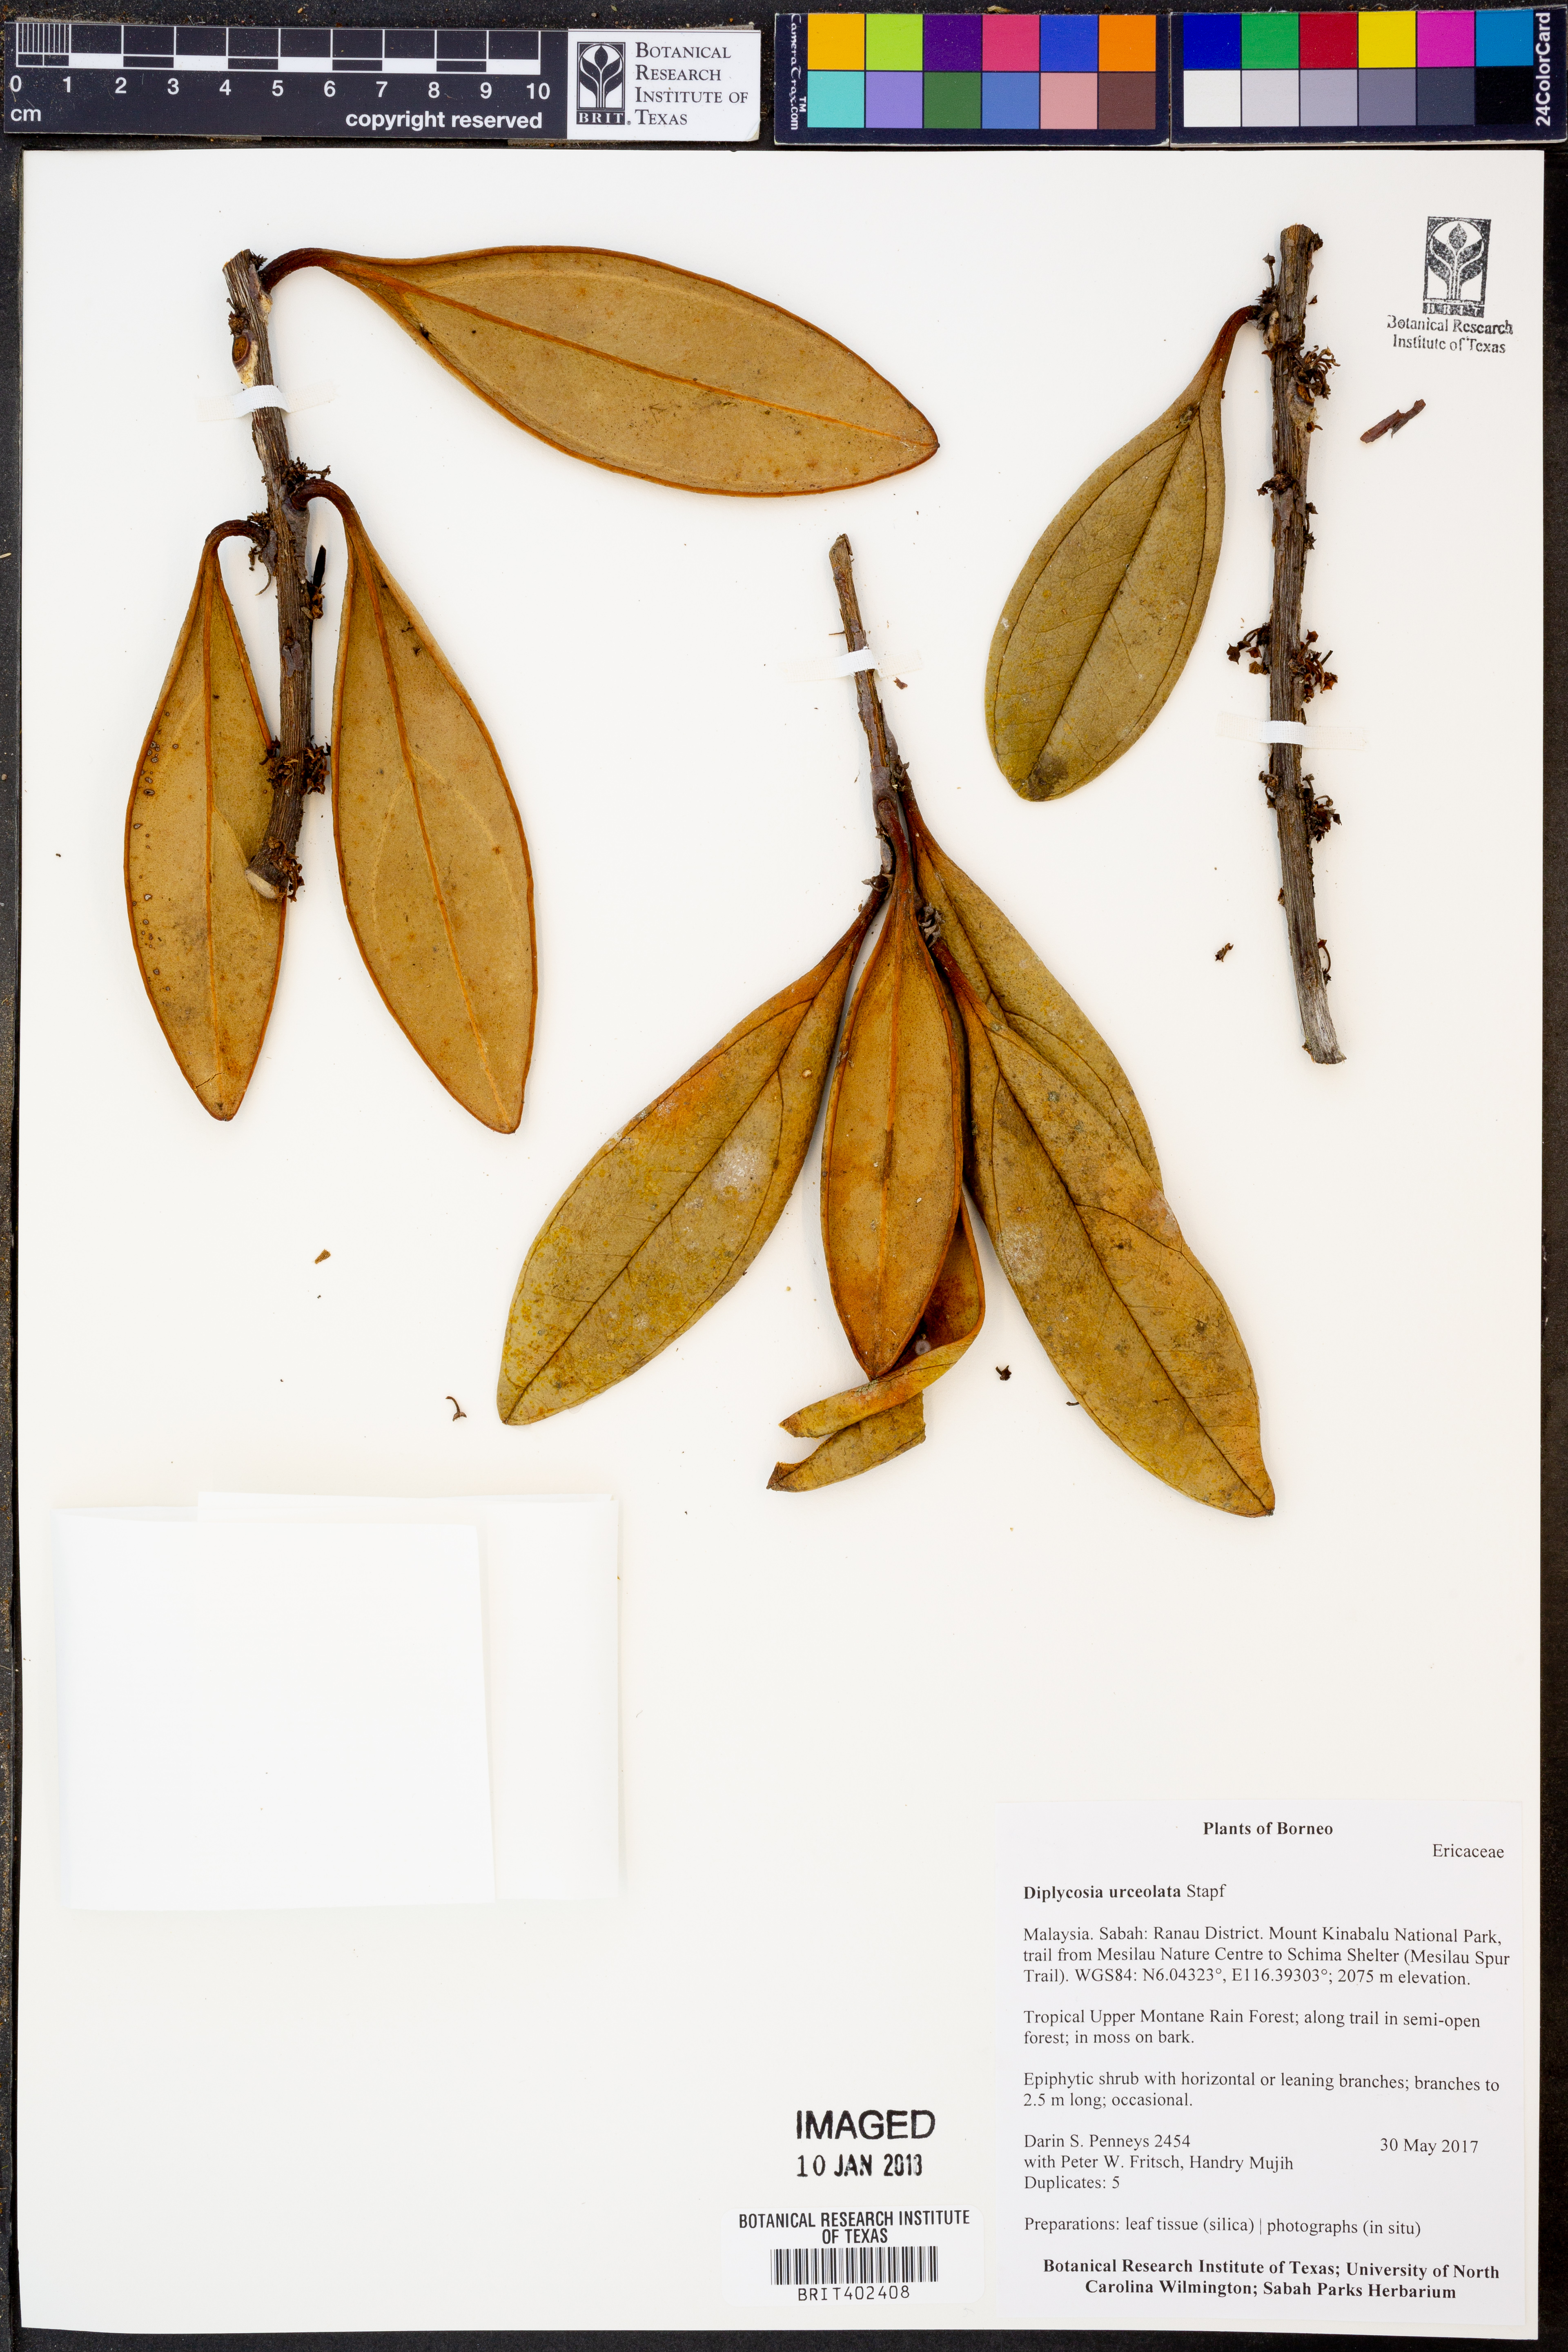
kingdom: Plantae
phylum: Tracheophyta
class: Magnoliopsida
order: Ericales
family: Ericaceae
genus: Gaultheria
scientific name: Gaultheria urceolata
